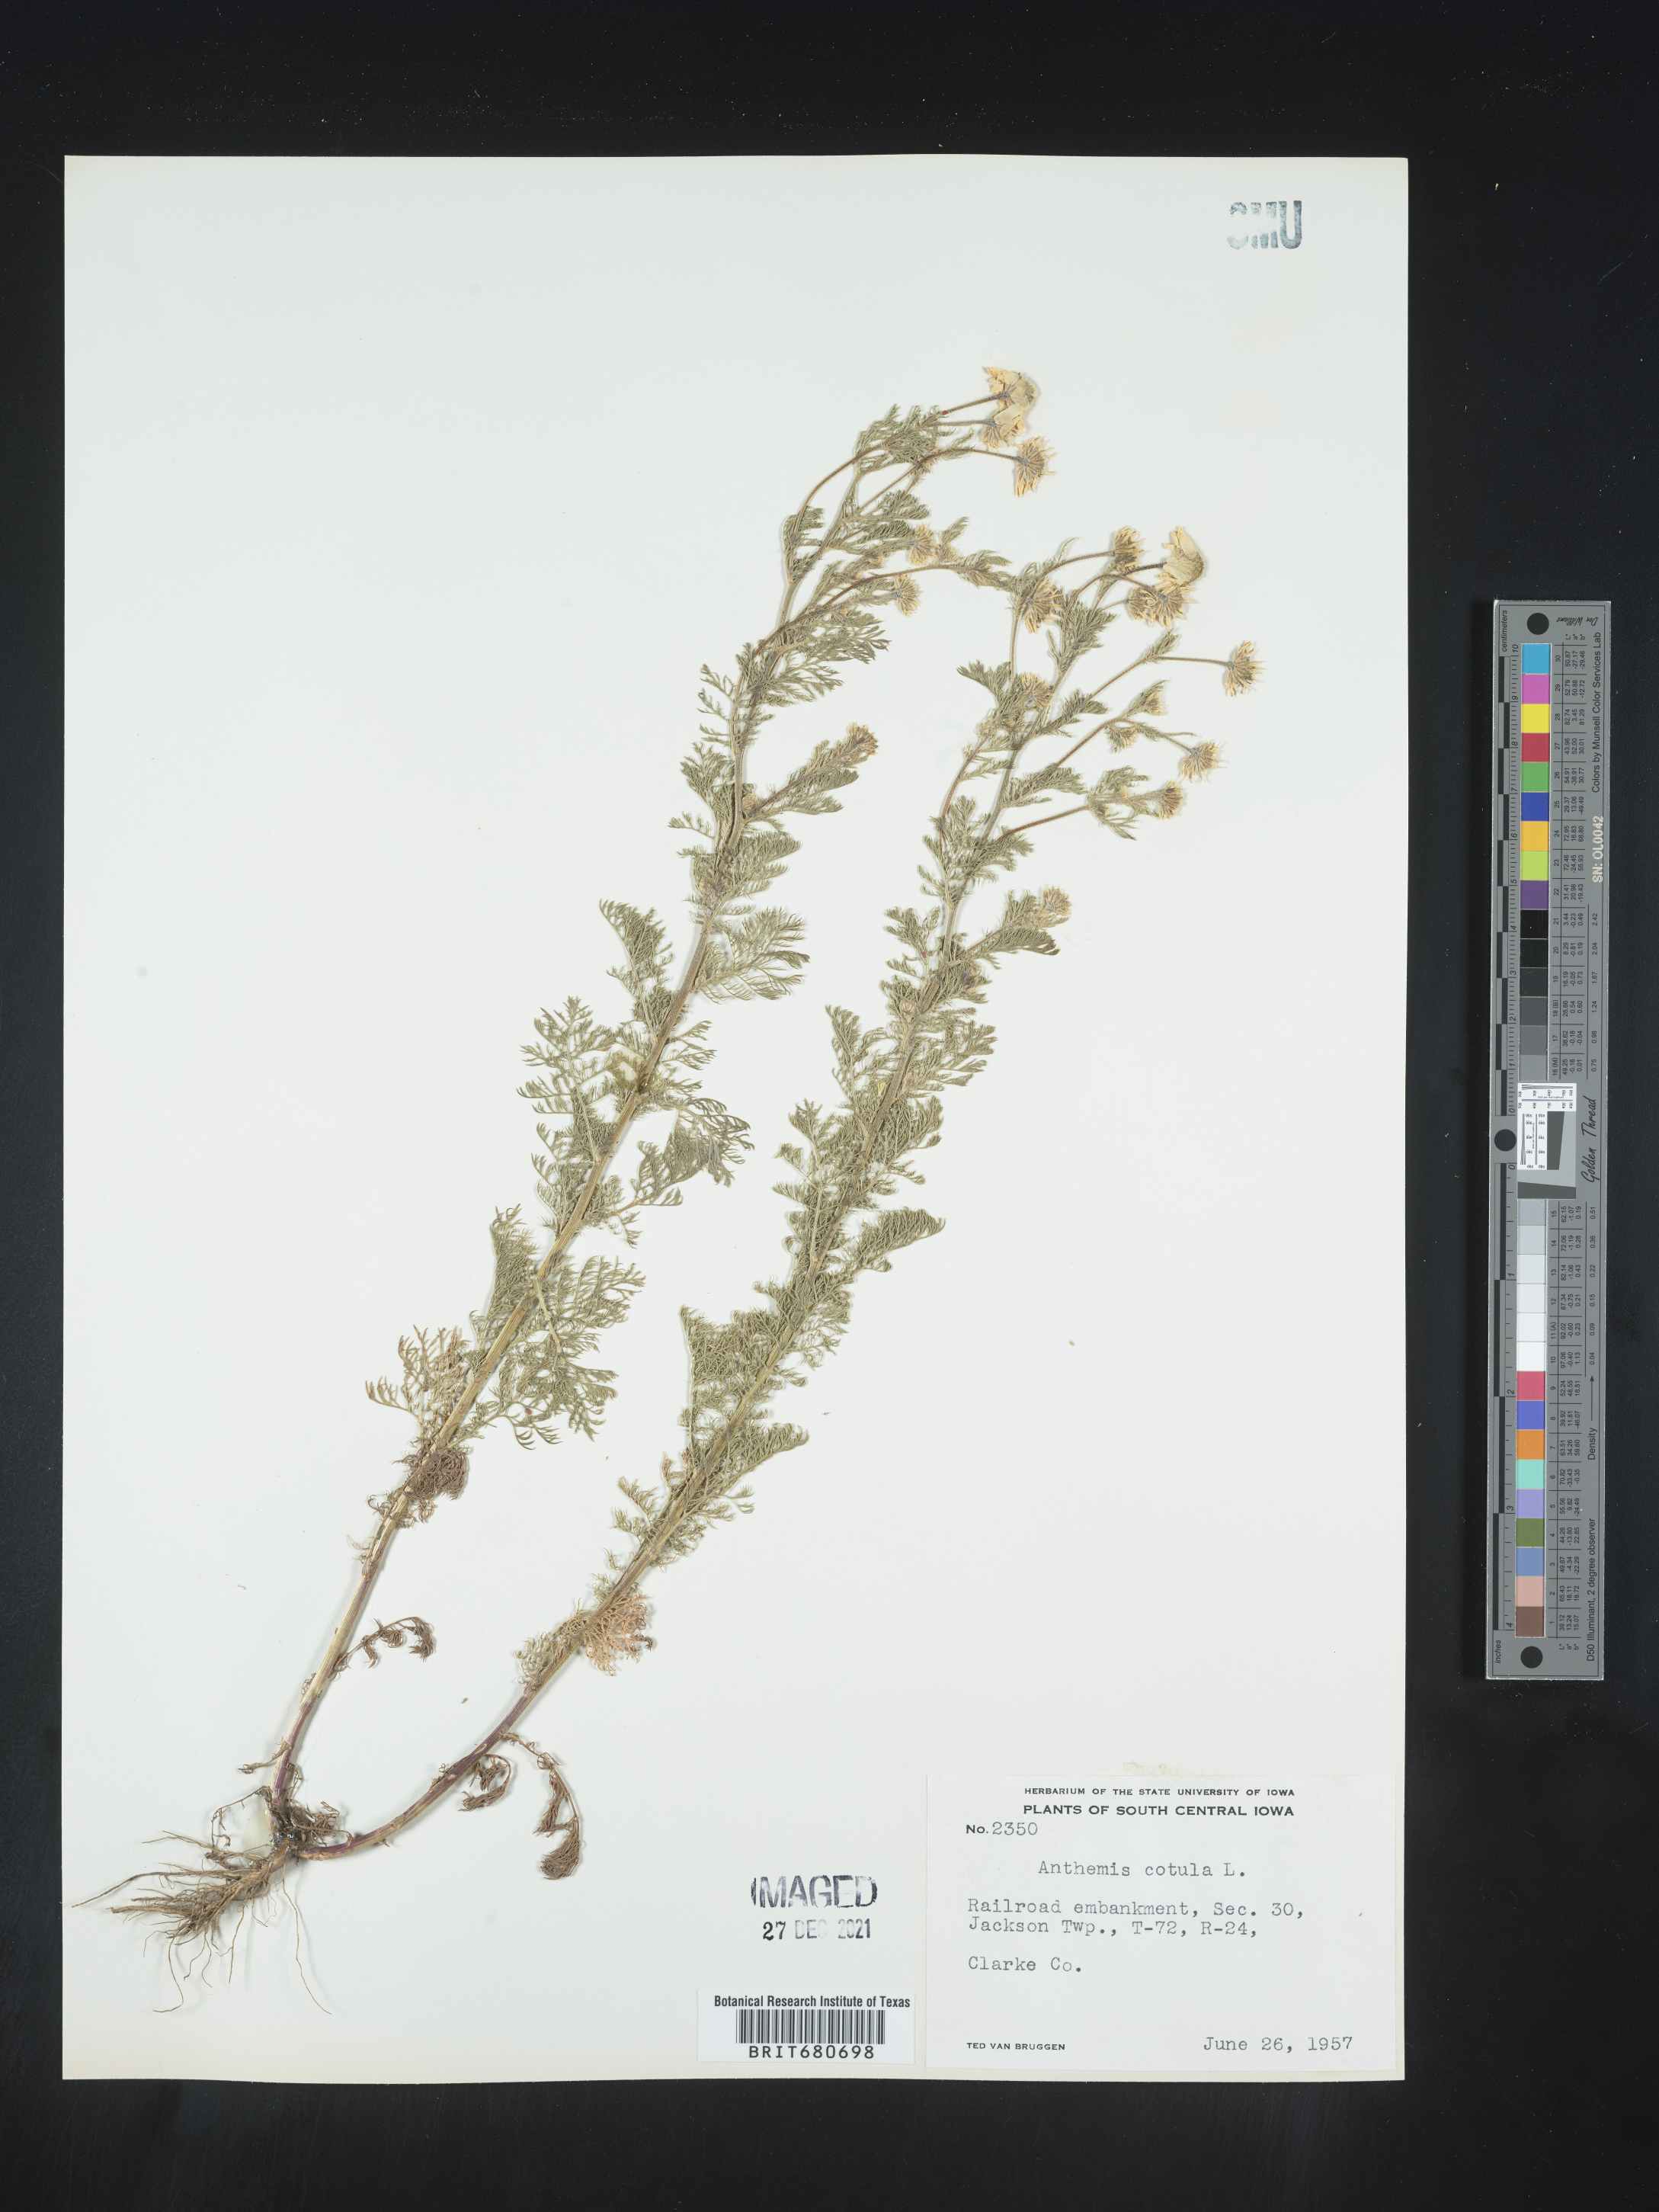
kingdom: Plantae
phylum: Tracheophyta
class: Magnoliopsida
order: Asterales
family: Asteraceae
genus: Anthemis
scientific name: Anthemis cotula
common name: Stinking chamomile
